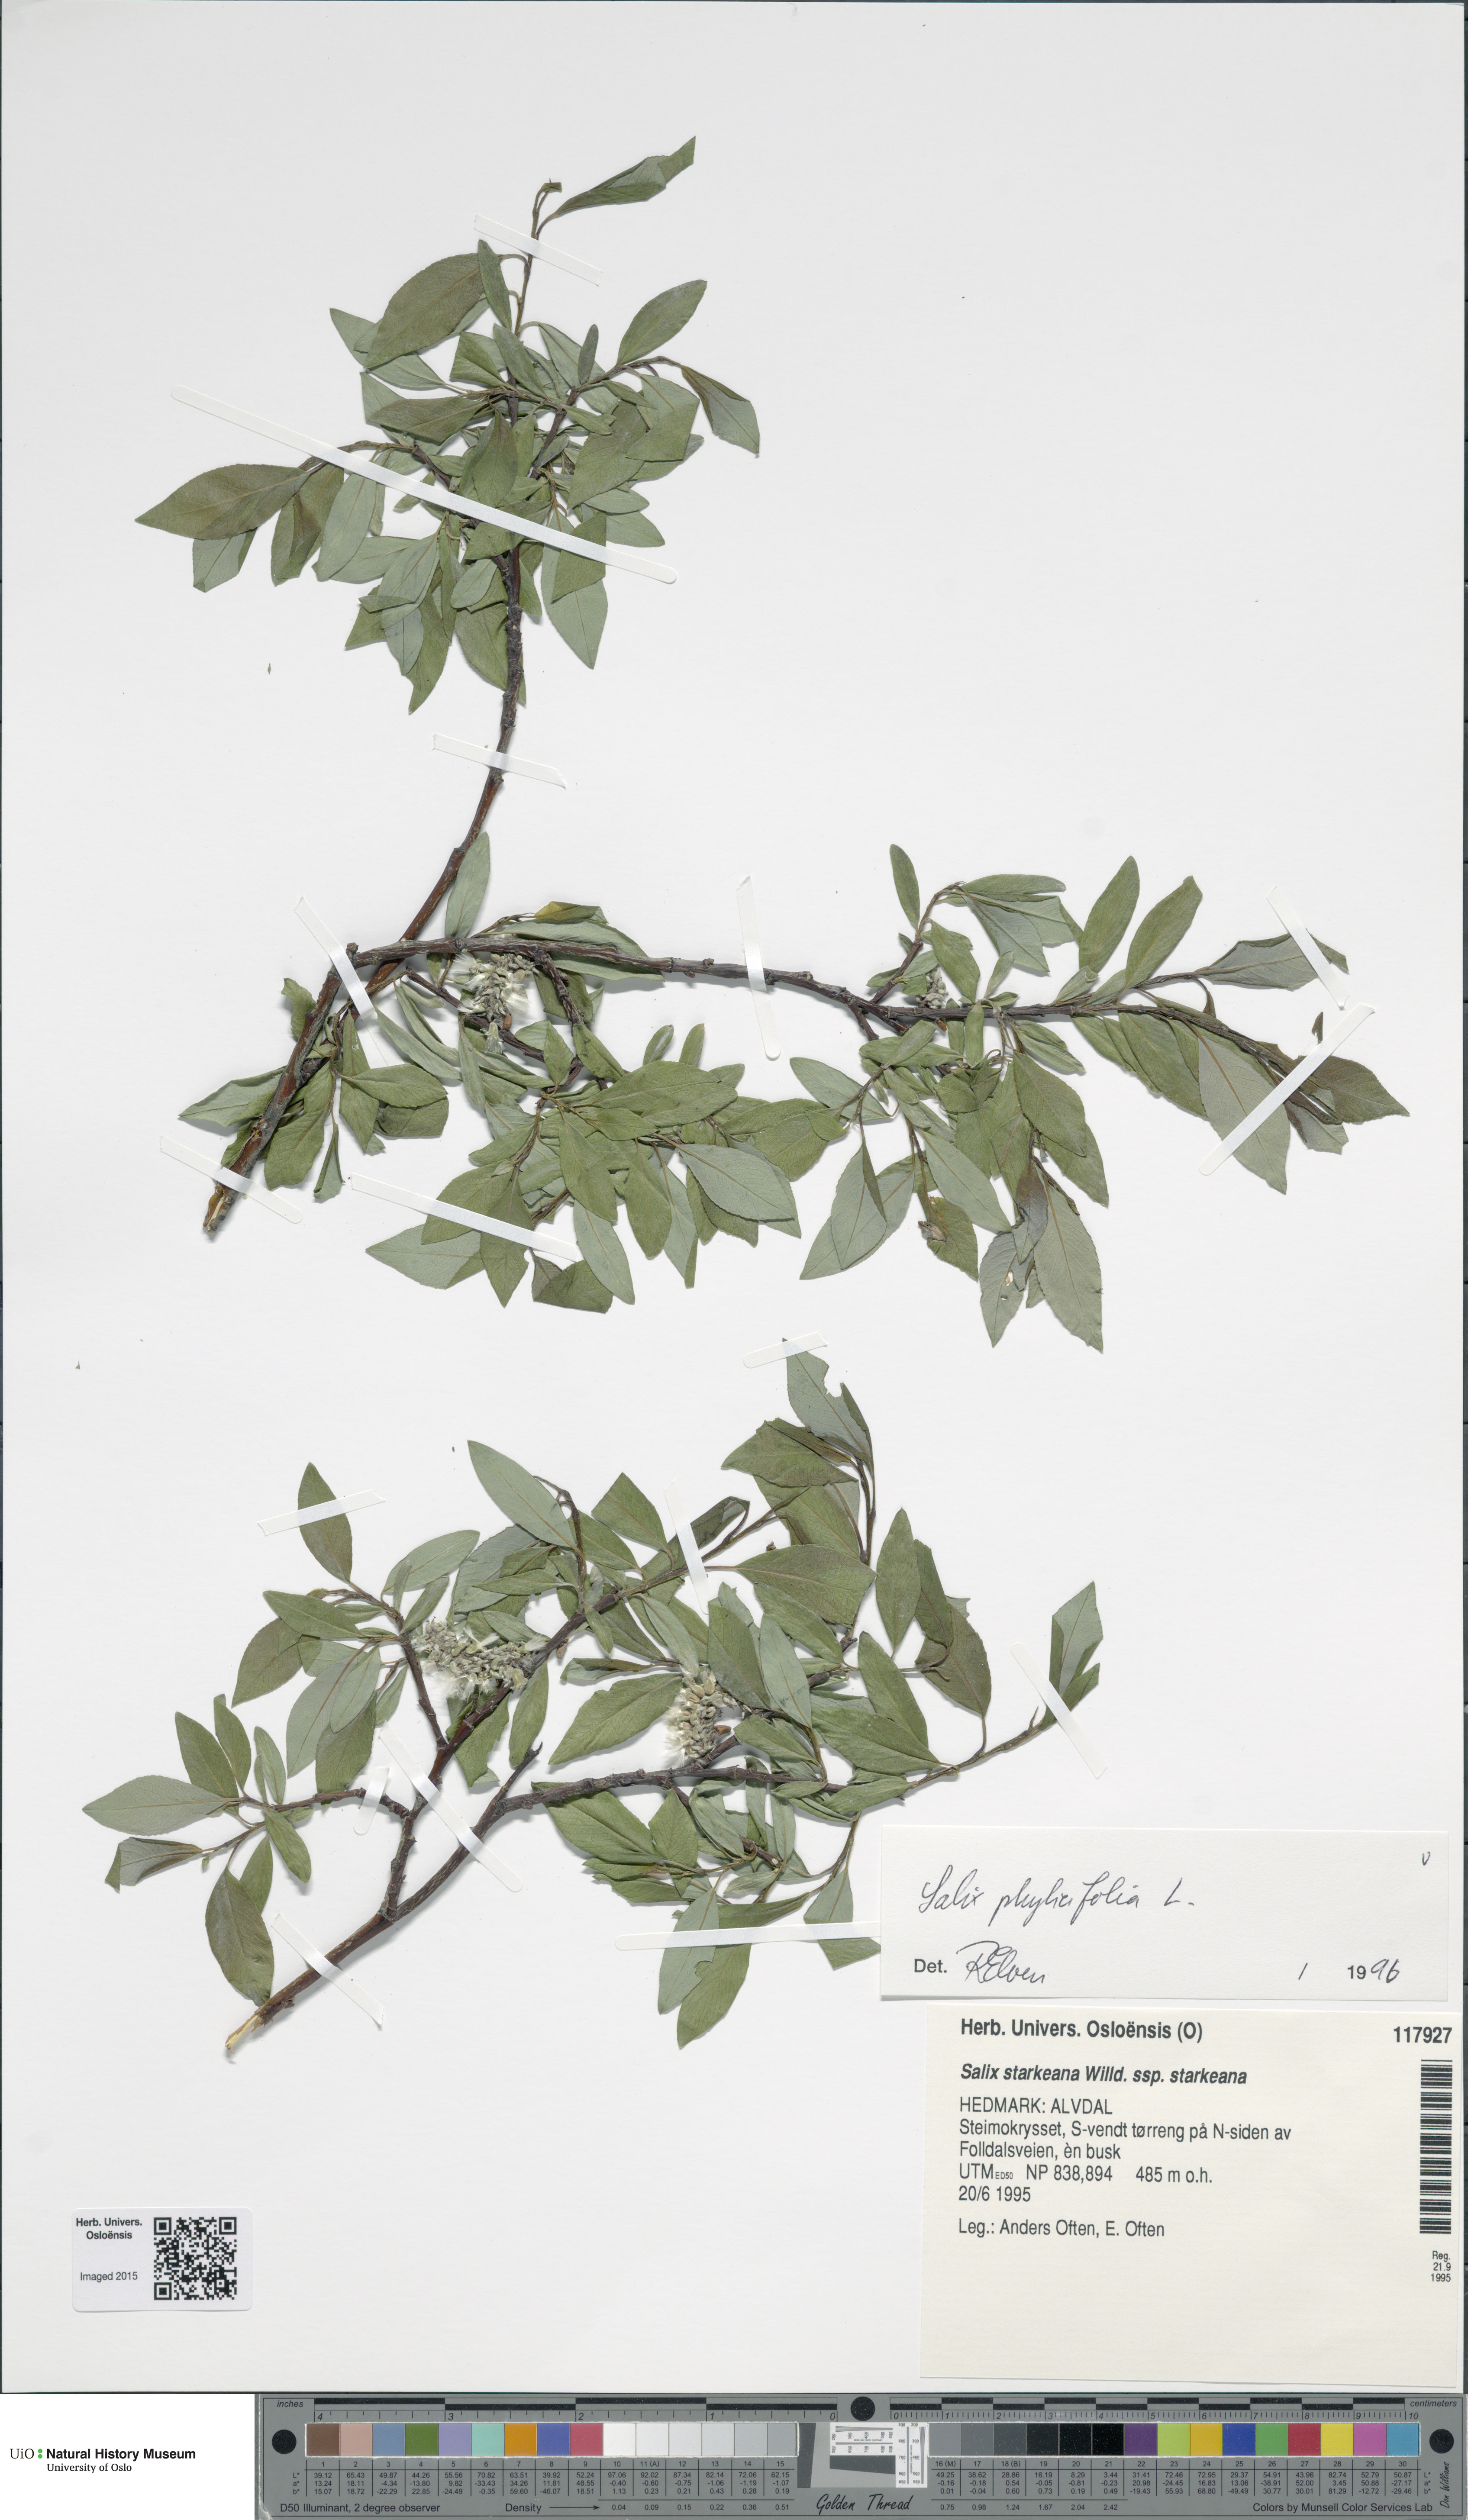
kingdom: Plantae
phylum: Tracheophyta
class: Magnoliopsida
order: Malpighiales
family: Salicaceae
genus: Salix
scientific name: Salix phylicifolia
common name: Tea-leaved willow
